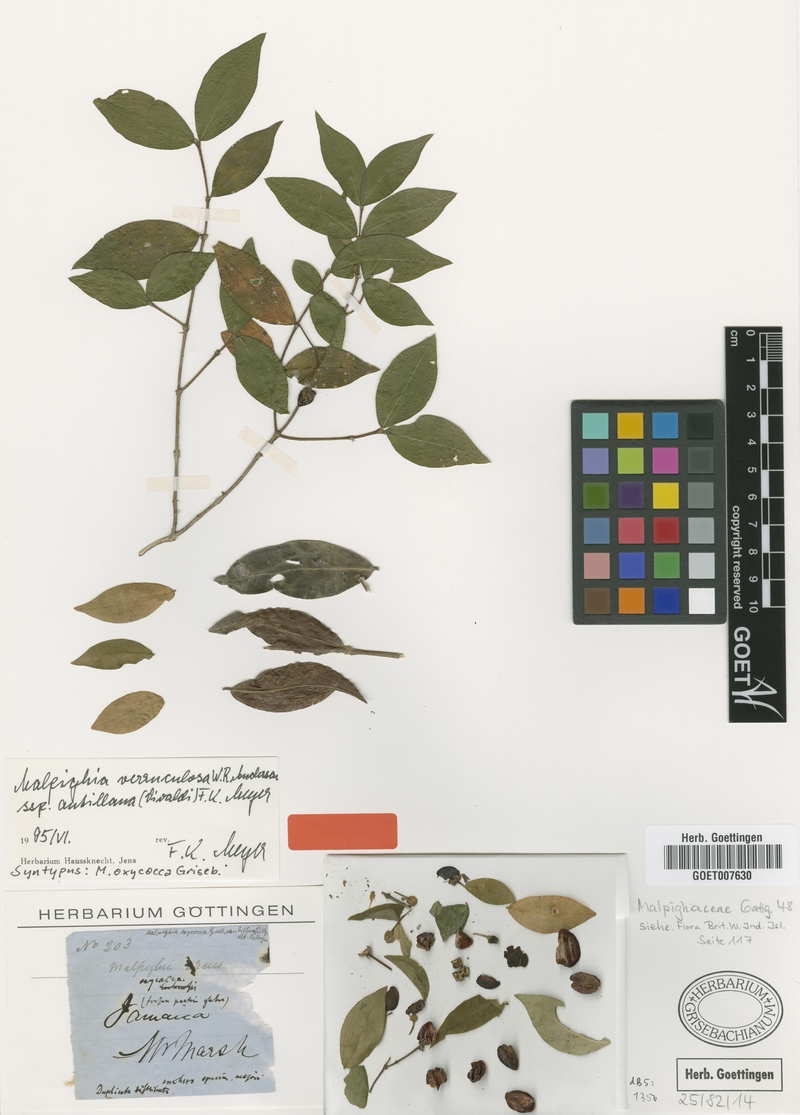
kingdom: Plantae
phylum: Tracheophyta
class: Magnoliopsida
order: Malpighiales
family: Malpighiaceae
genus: Malpighia
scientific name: Malpighia verruculosa
